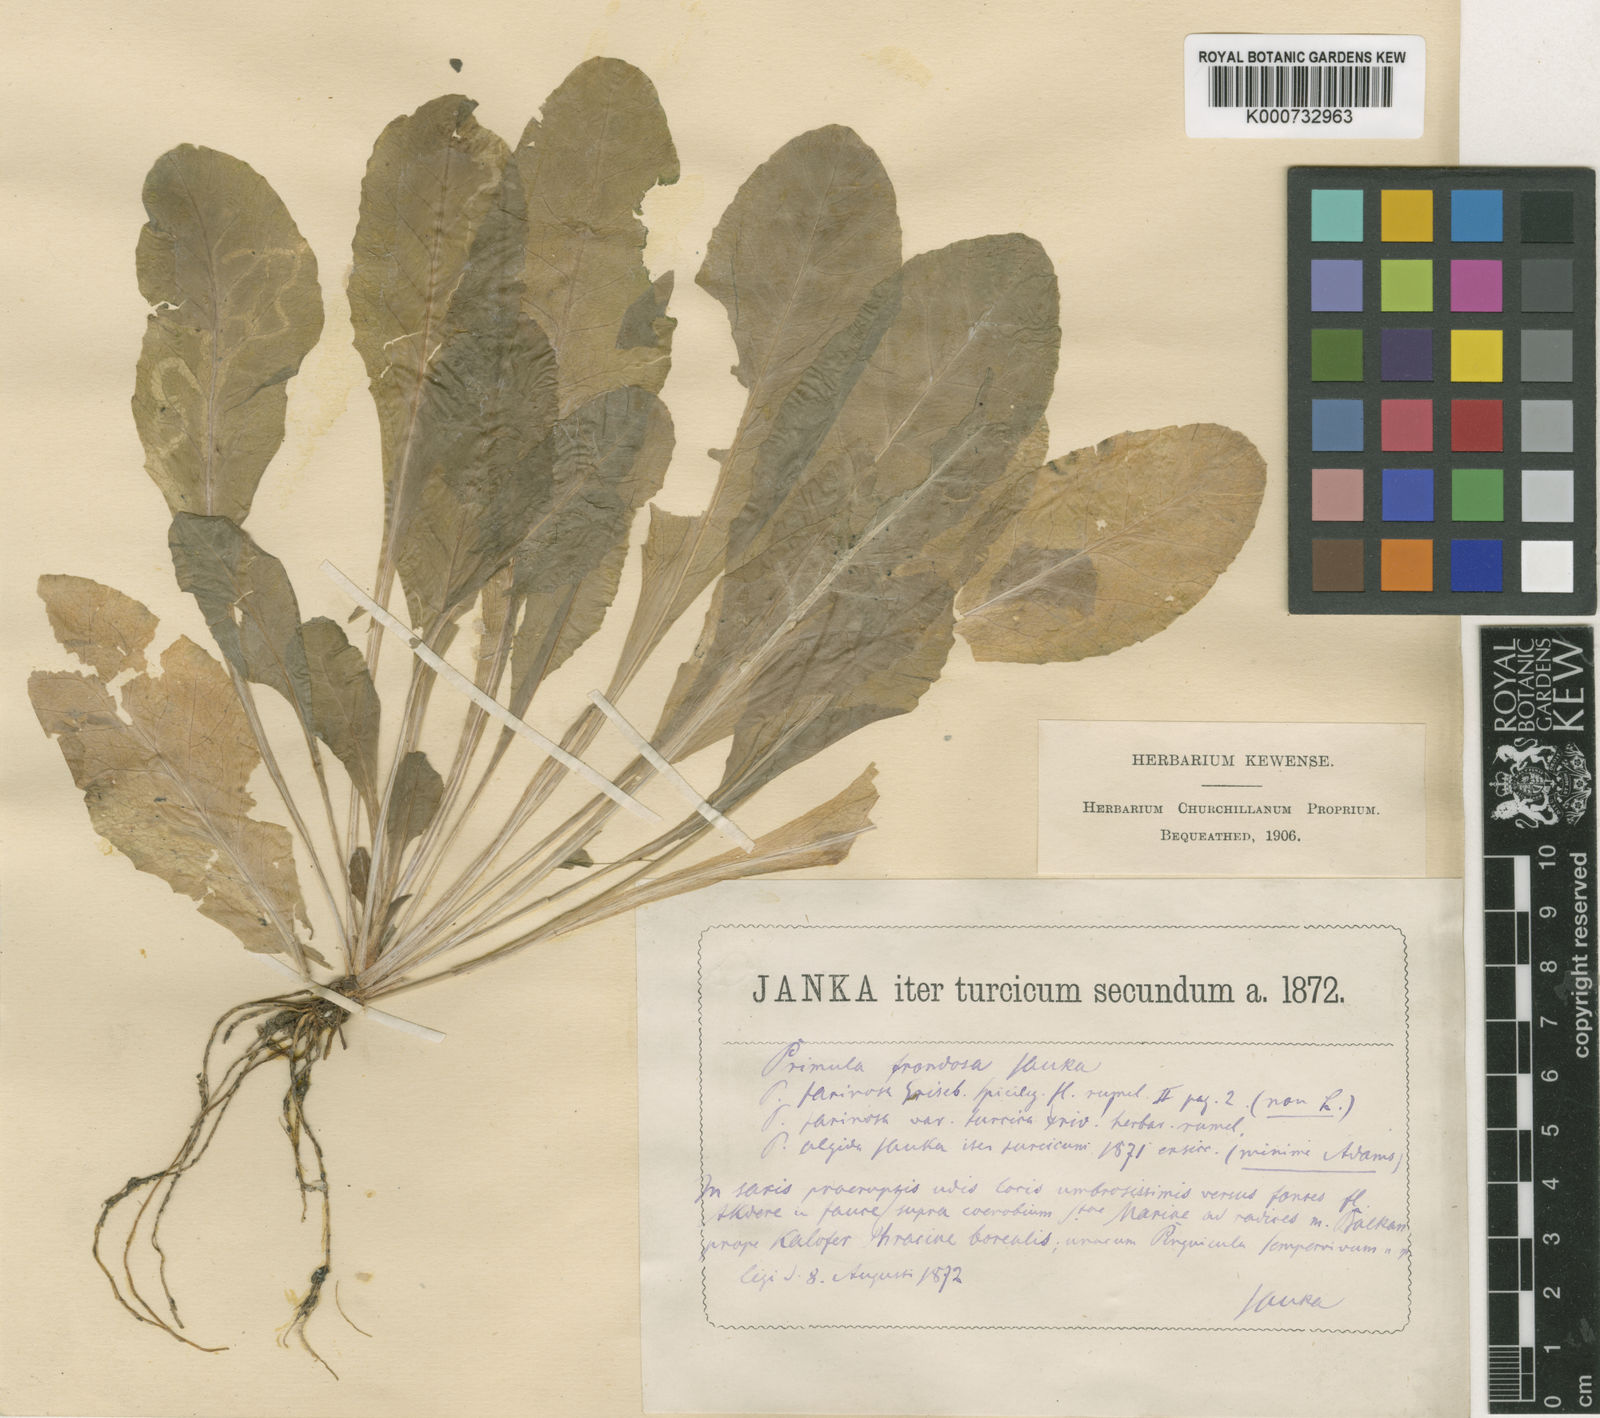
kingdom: Plantae
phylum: Tracheophyta
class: Magnoliopsida
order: Ericales
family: Primulaceae
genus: Primula
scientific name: Primula frondosa
